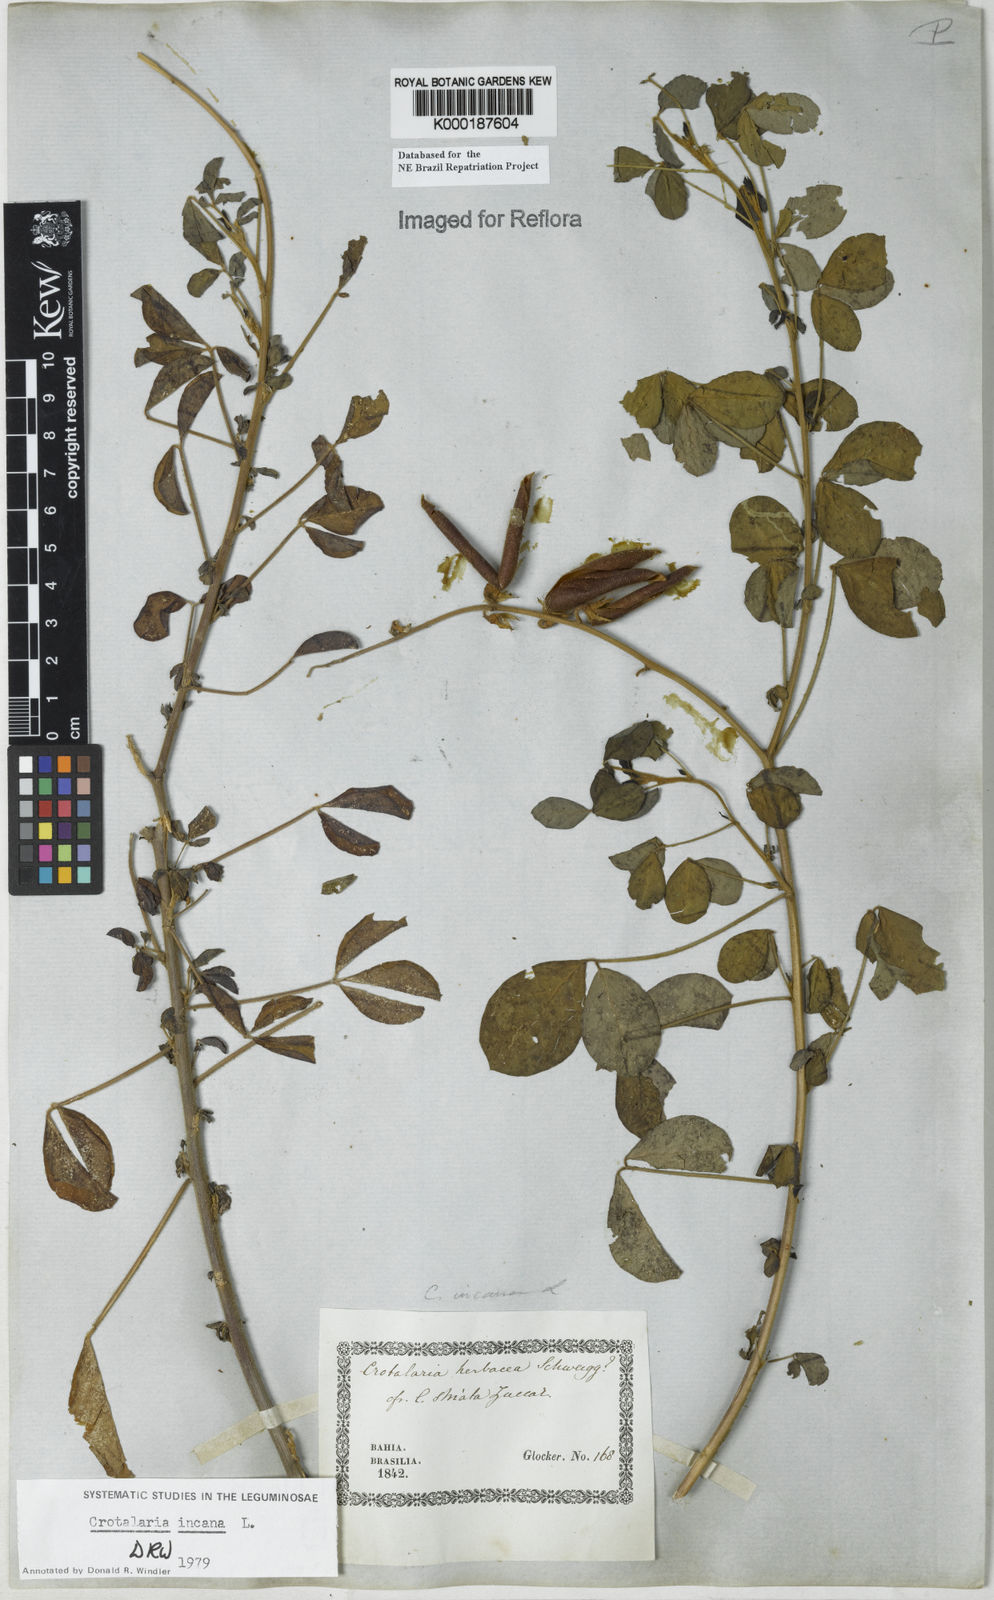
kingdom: Plantae
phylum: Tracheophyta
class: Magnoliopsida
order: Fabales
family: Fabaceae
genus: Crotalaria
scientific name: Crotalaria incana
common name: Shakeshake
